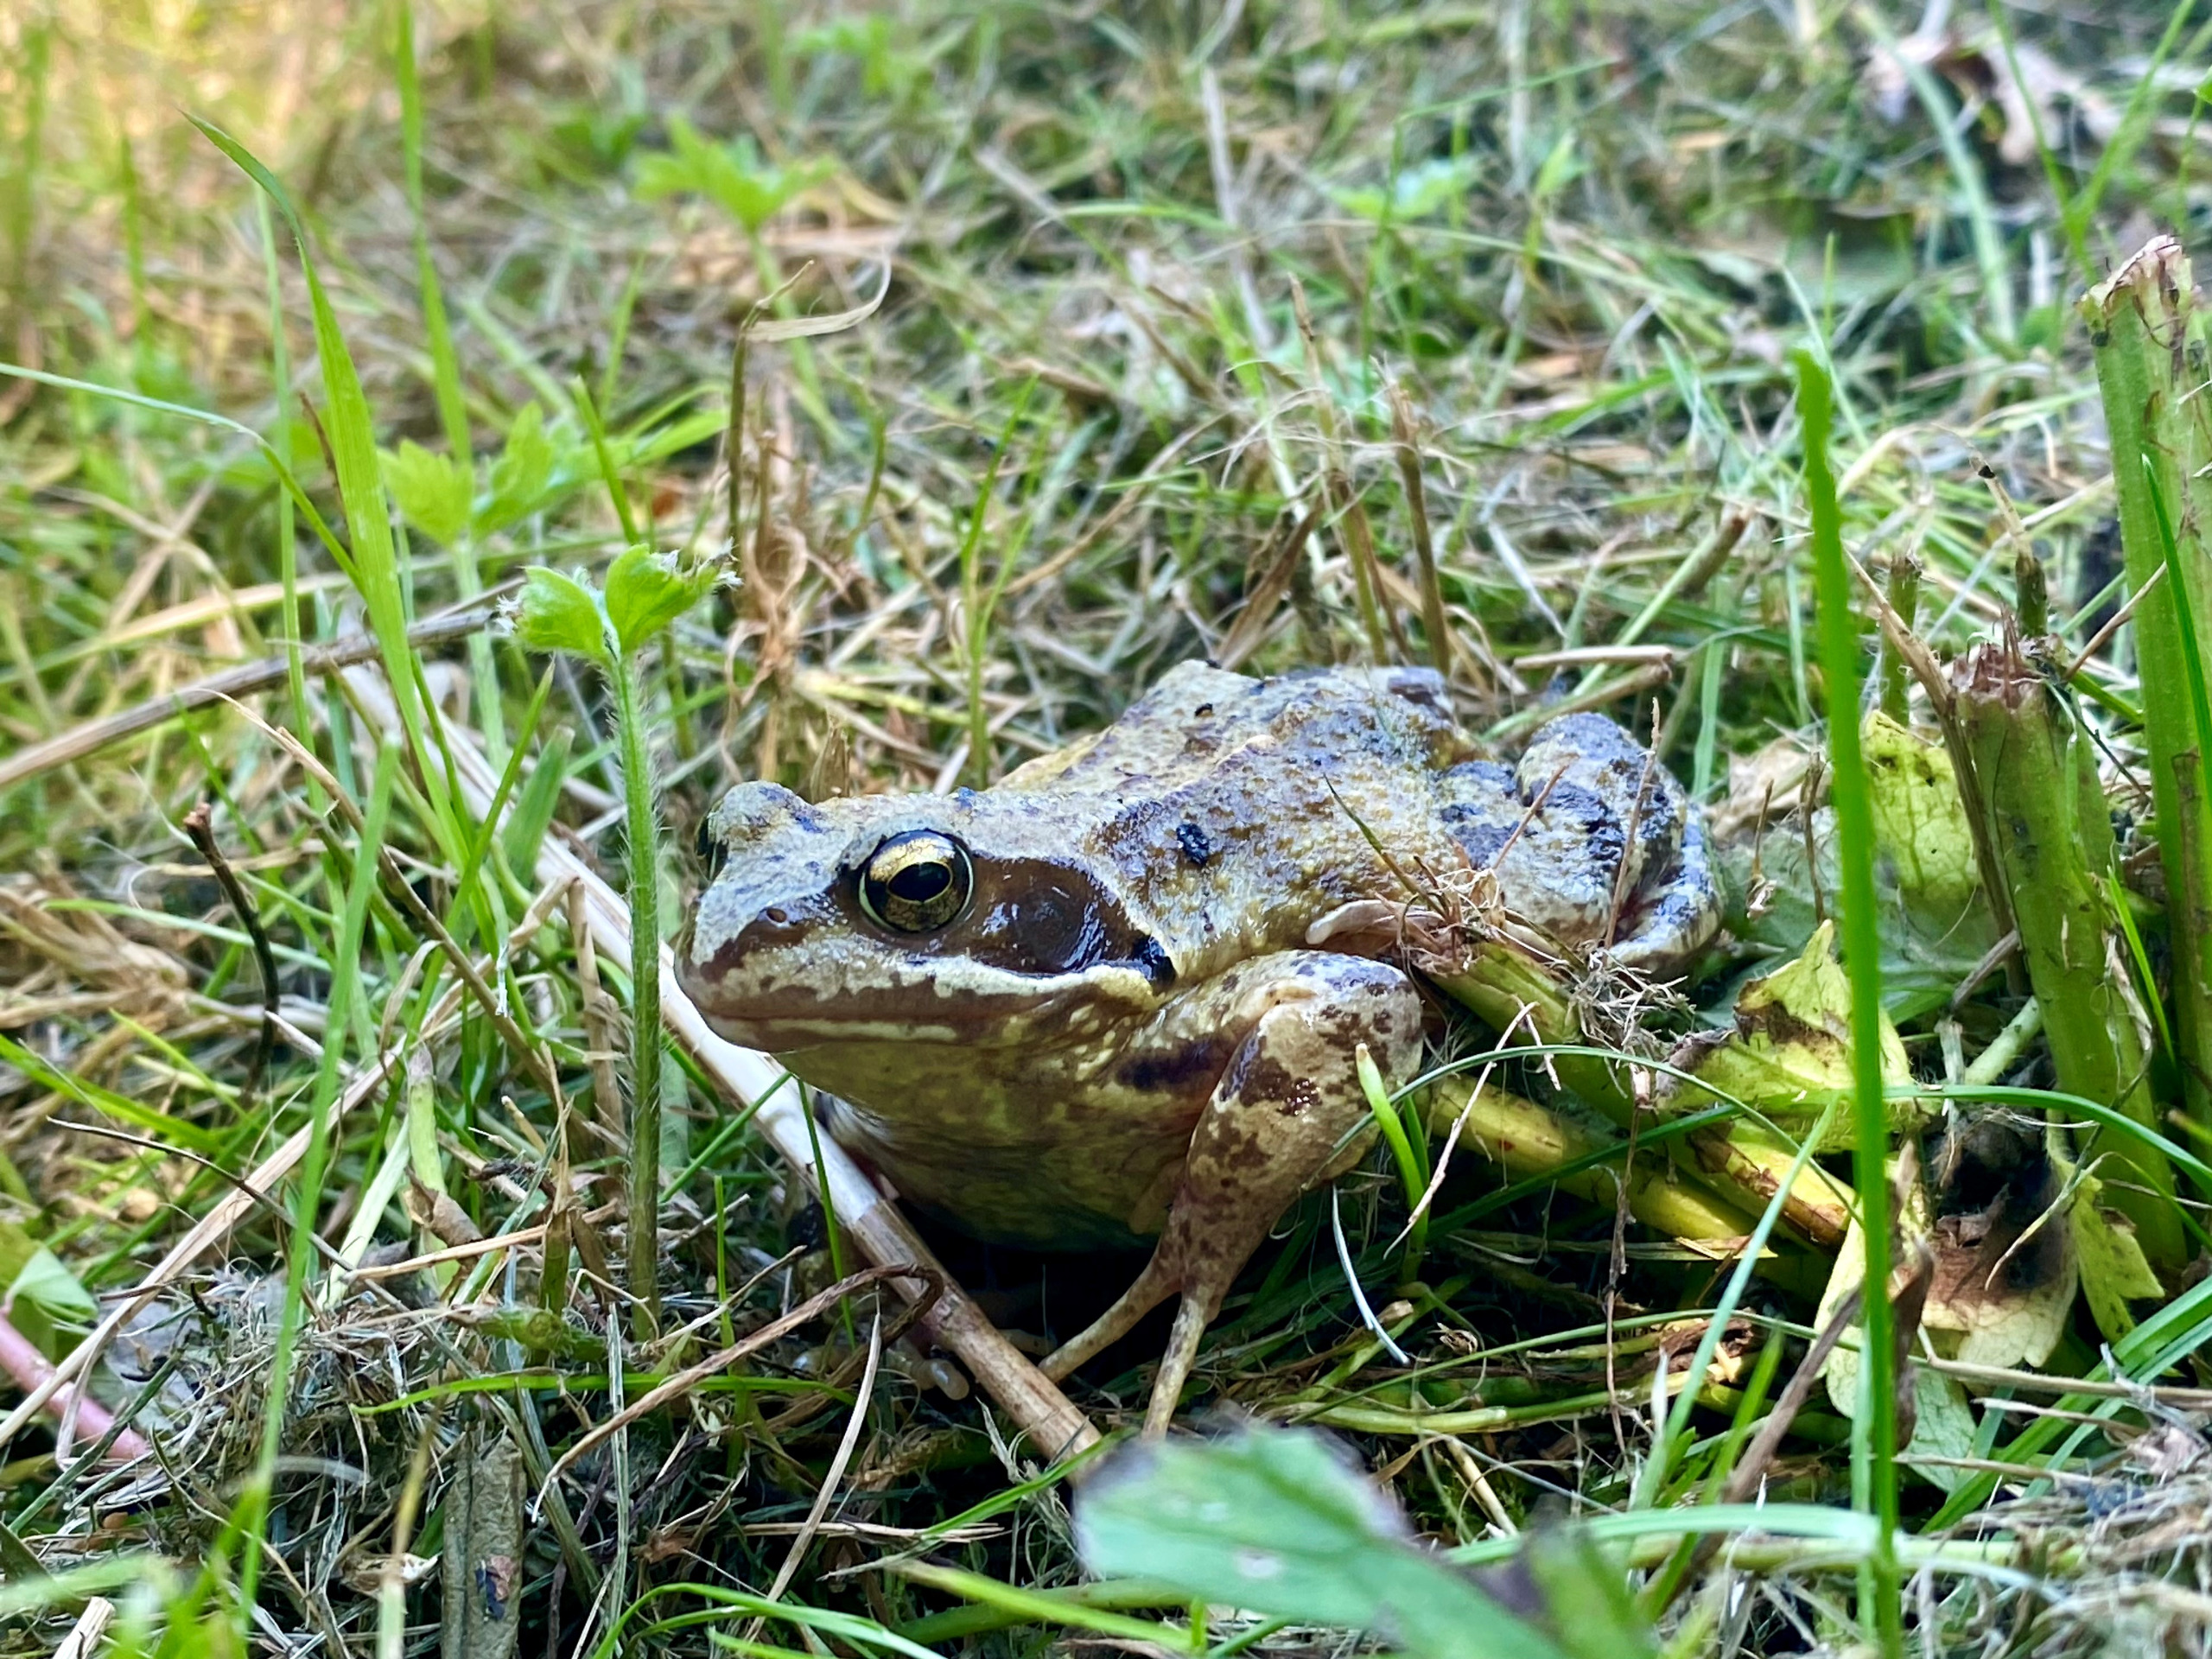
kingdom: Animalia
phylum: Chordata
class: Amphibia
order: Anura
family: Ranidae
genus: Rana
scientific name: Rana temporaria
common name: Butsnudet frø
